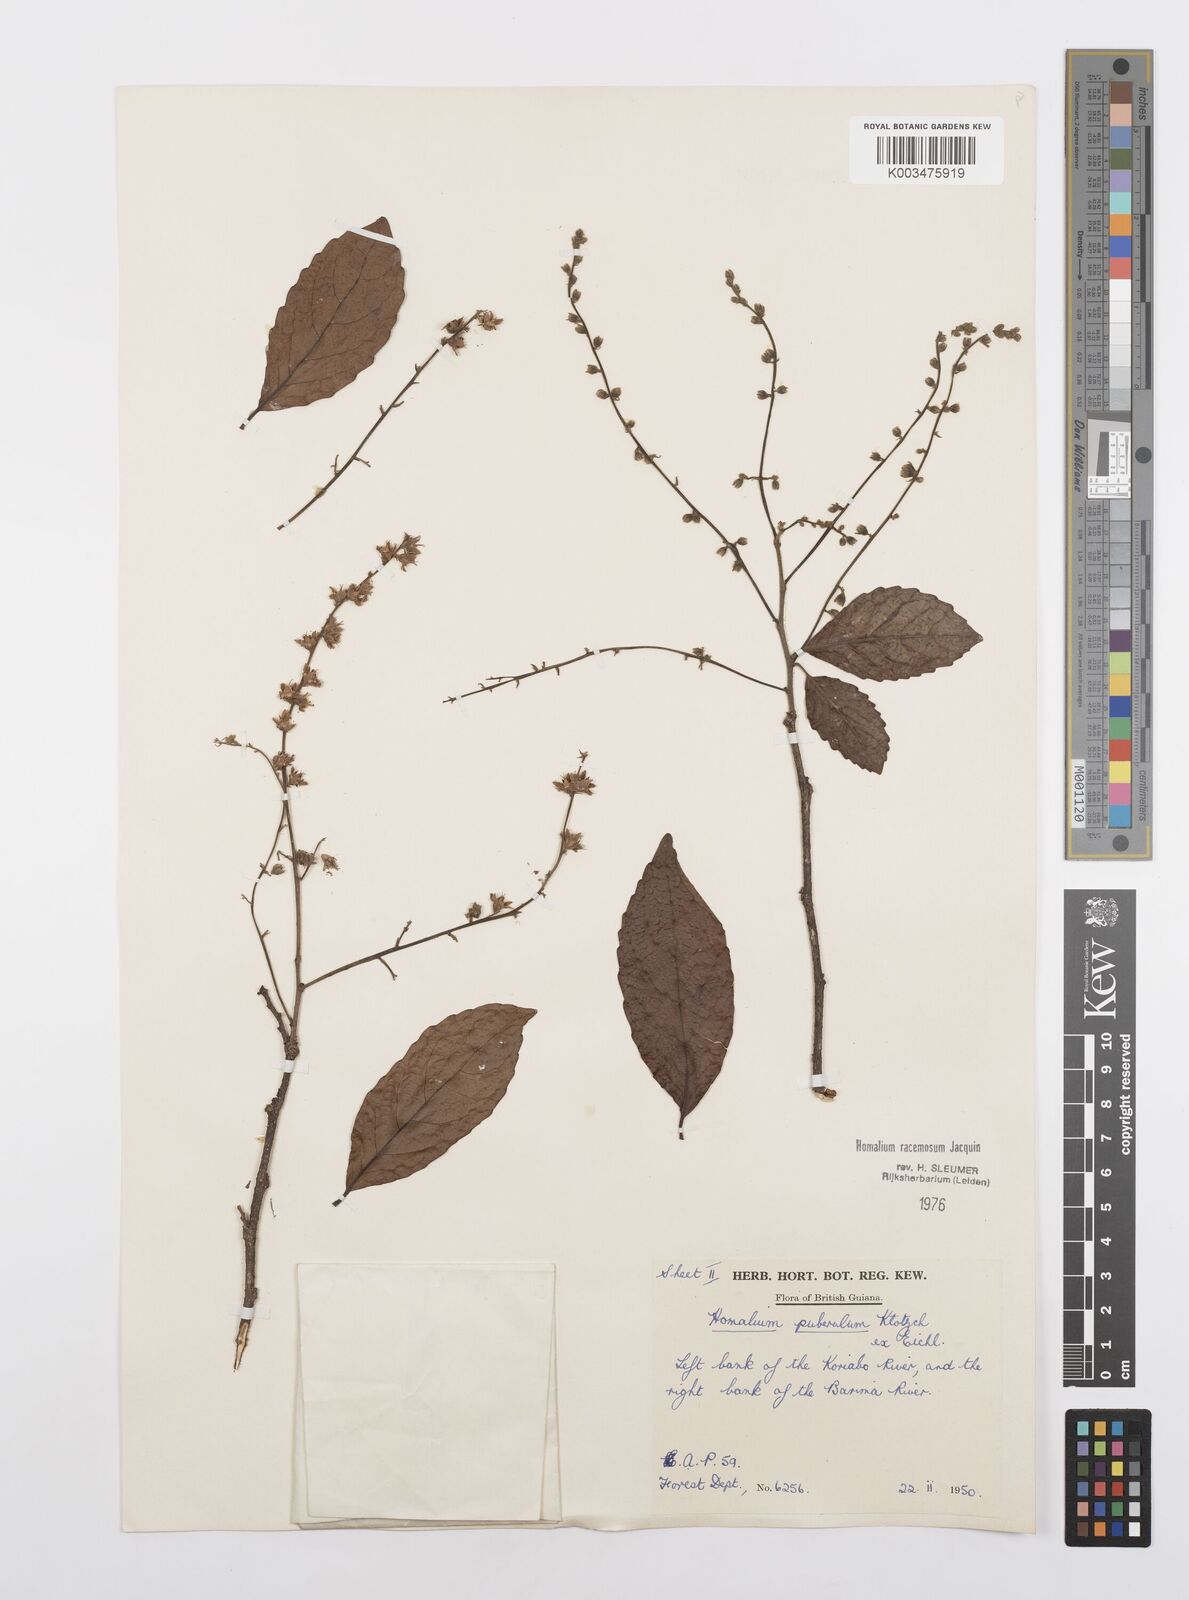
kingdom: Plantae
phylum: Tracheophyta
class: Magnoliopsida
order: Malpighiales
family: Salicaceae
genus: Homalium
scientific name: Homalium racemosum
